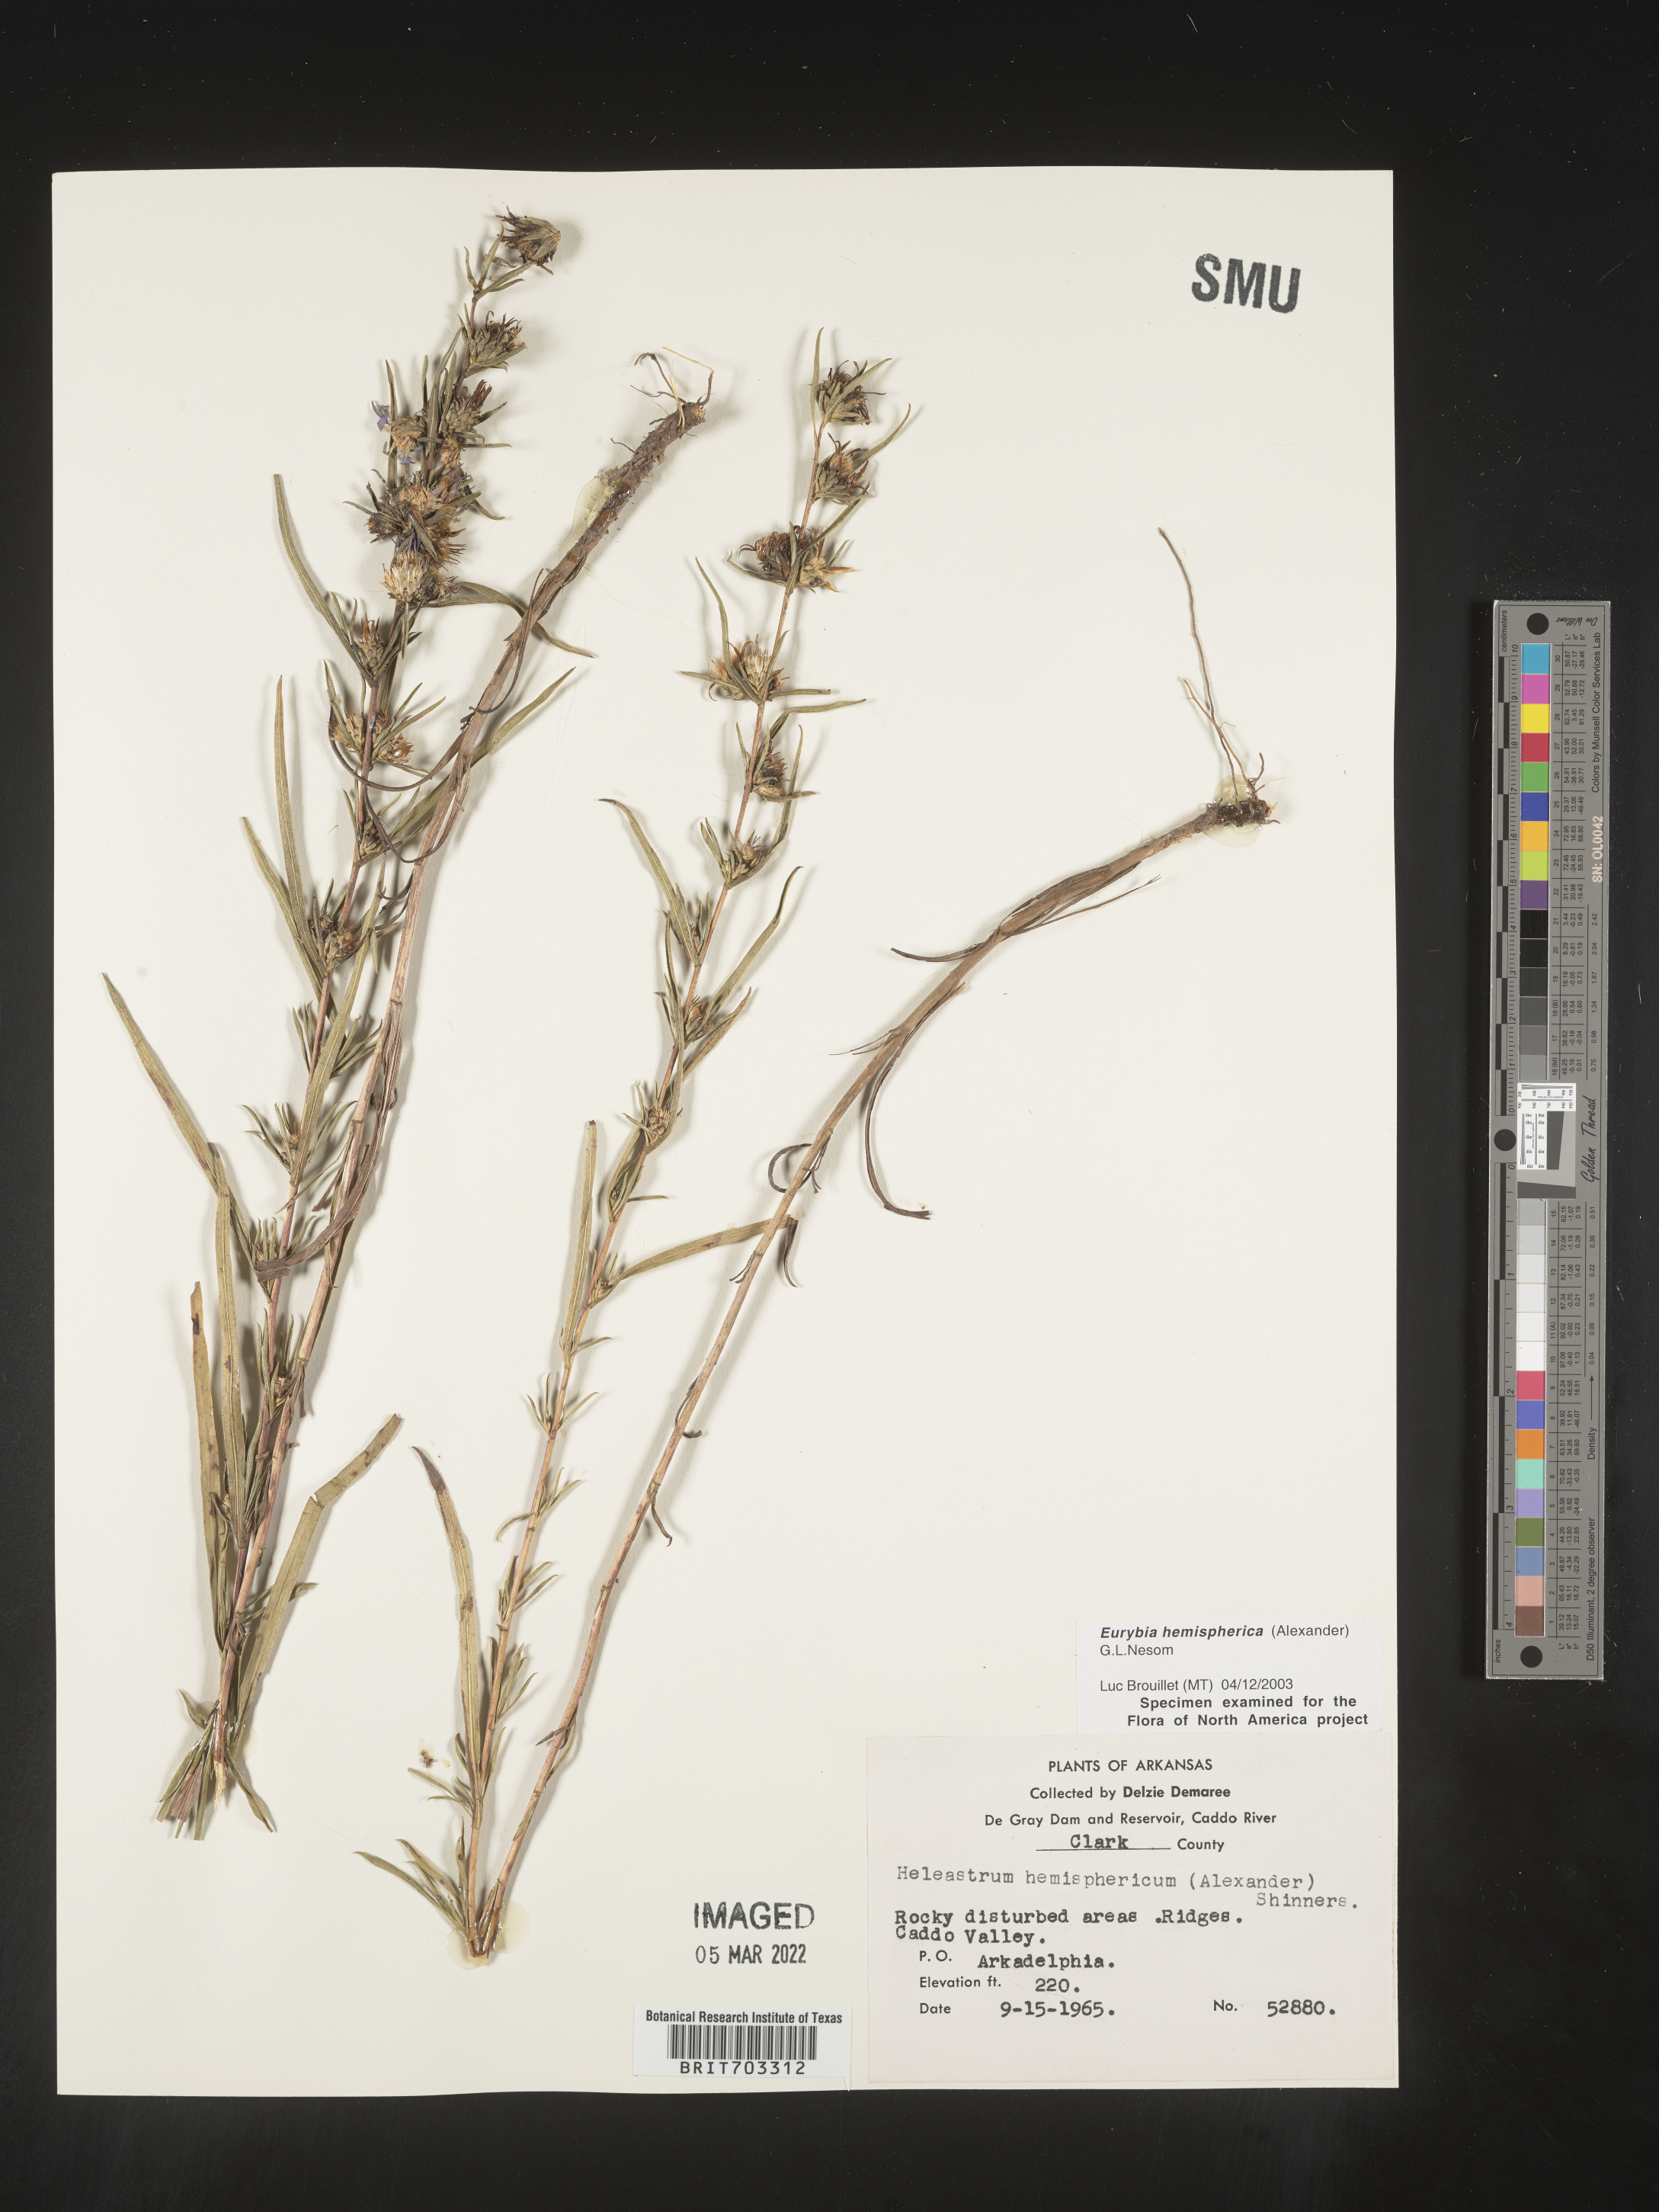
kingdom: Plantae
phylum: Tracheophyta
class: Magnoliopsida
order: Asterales
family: Asteraceae
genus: Eurybia
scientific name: Eurybia hemispherica
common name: Showy aster
